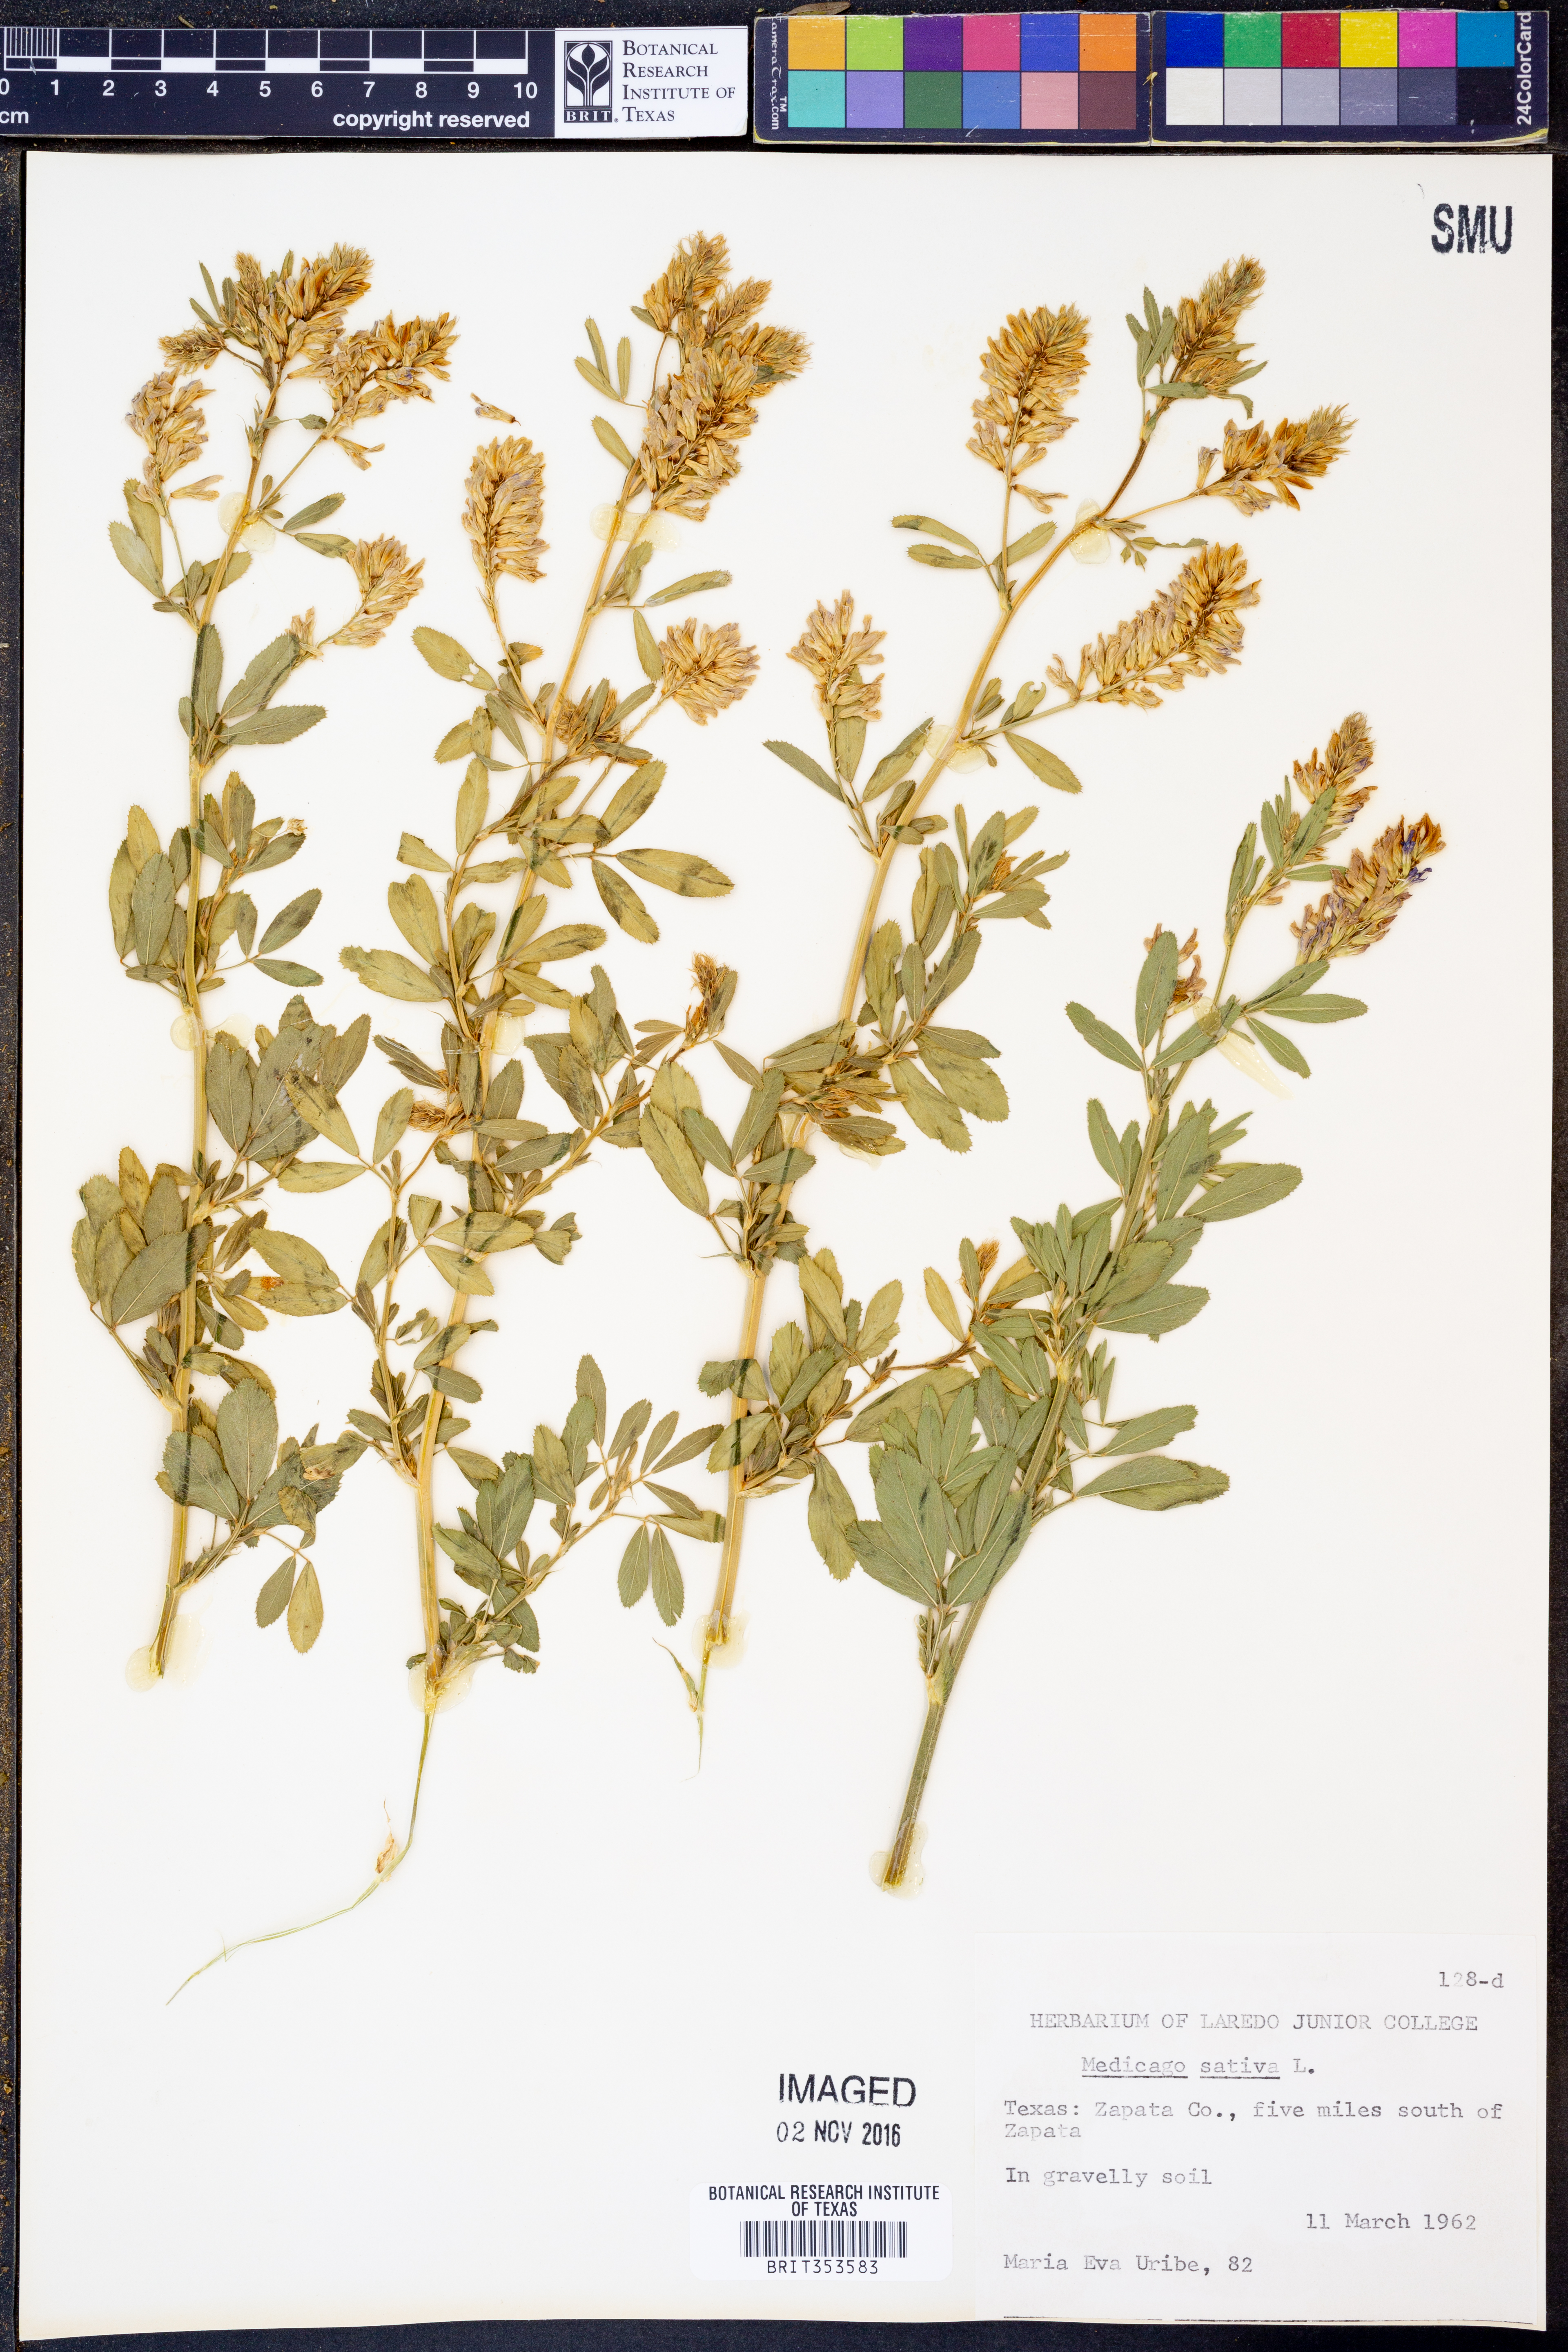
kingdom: Plantae
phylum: Tracheophyta
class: Magnoliopsida
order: Fabales
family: Fabaceae
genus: Medicago
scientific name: Medicago sativa
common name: Alfalfa
